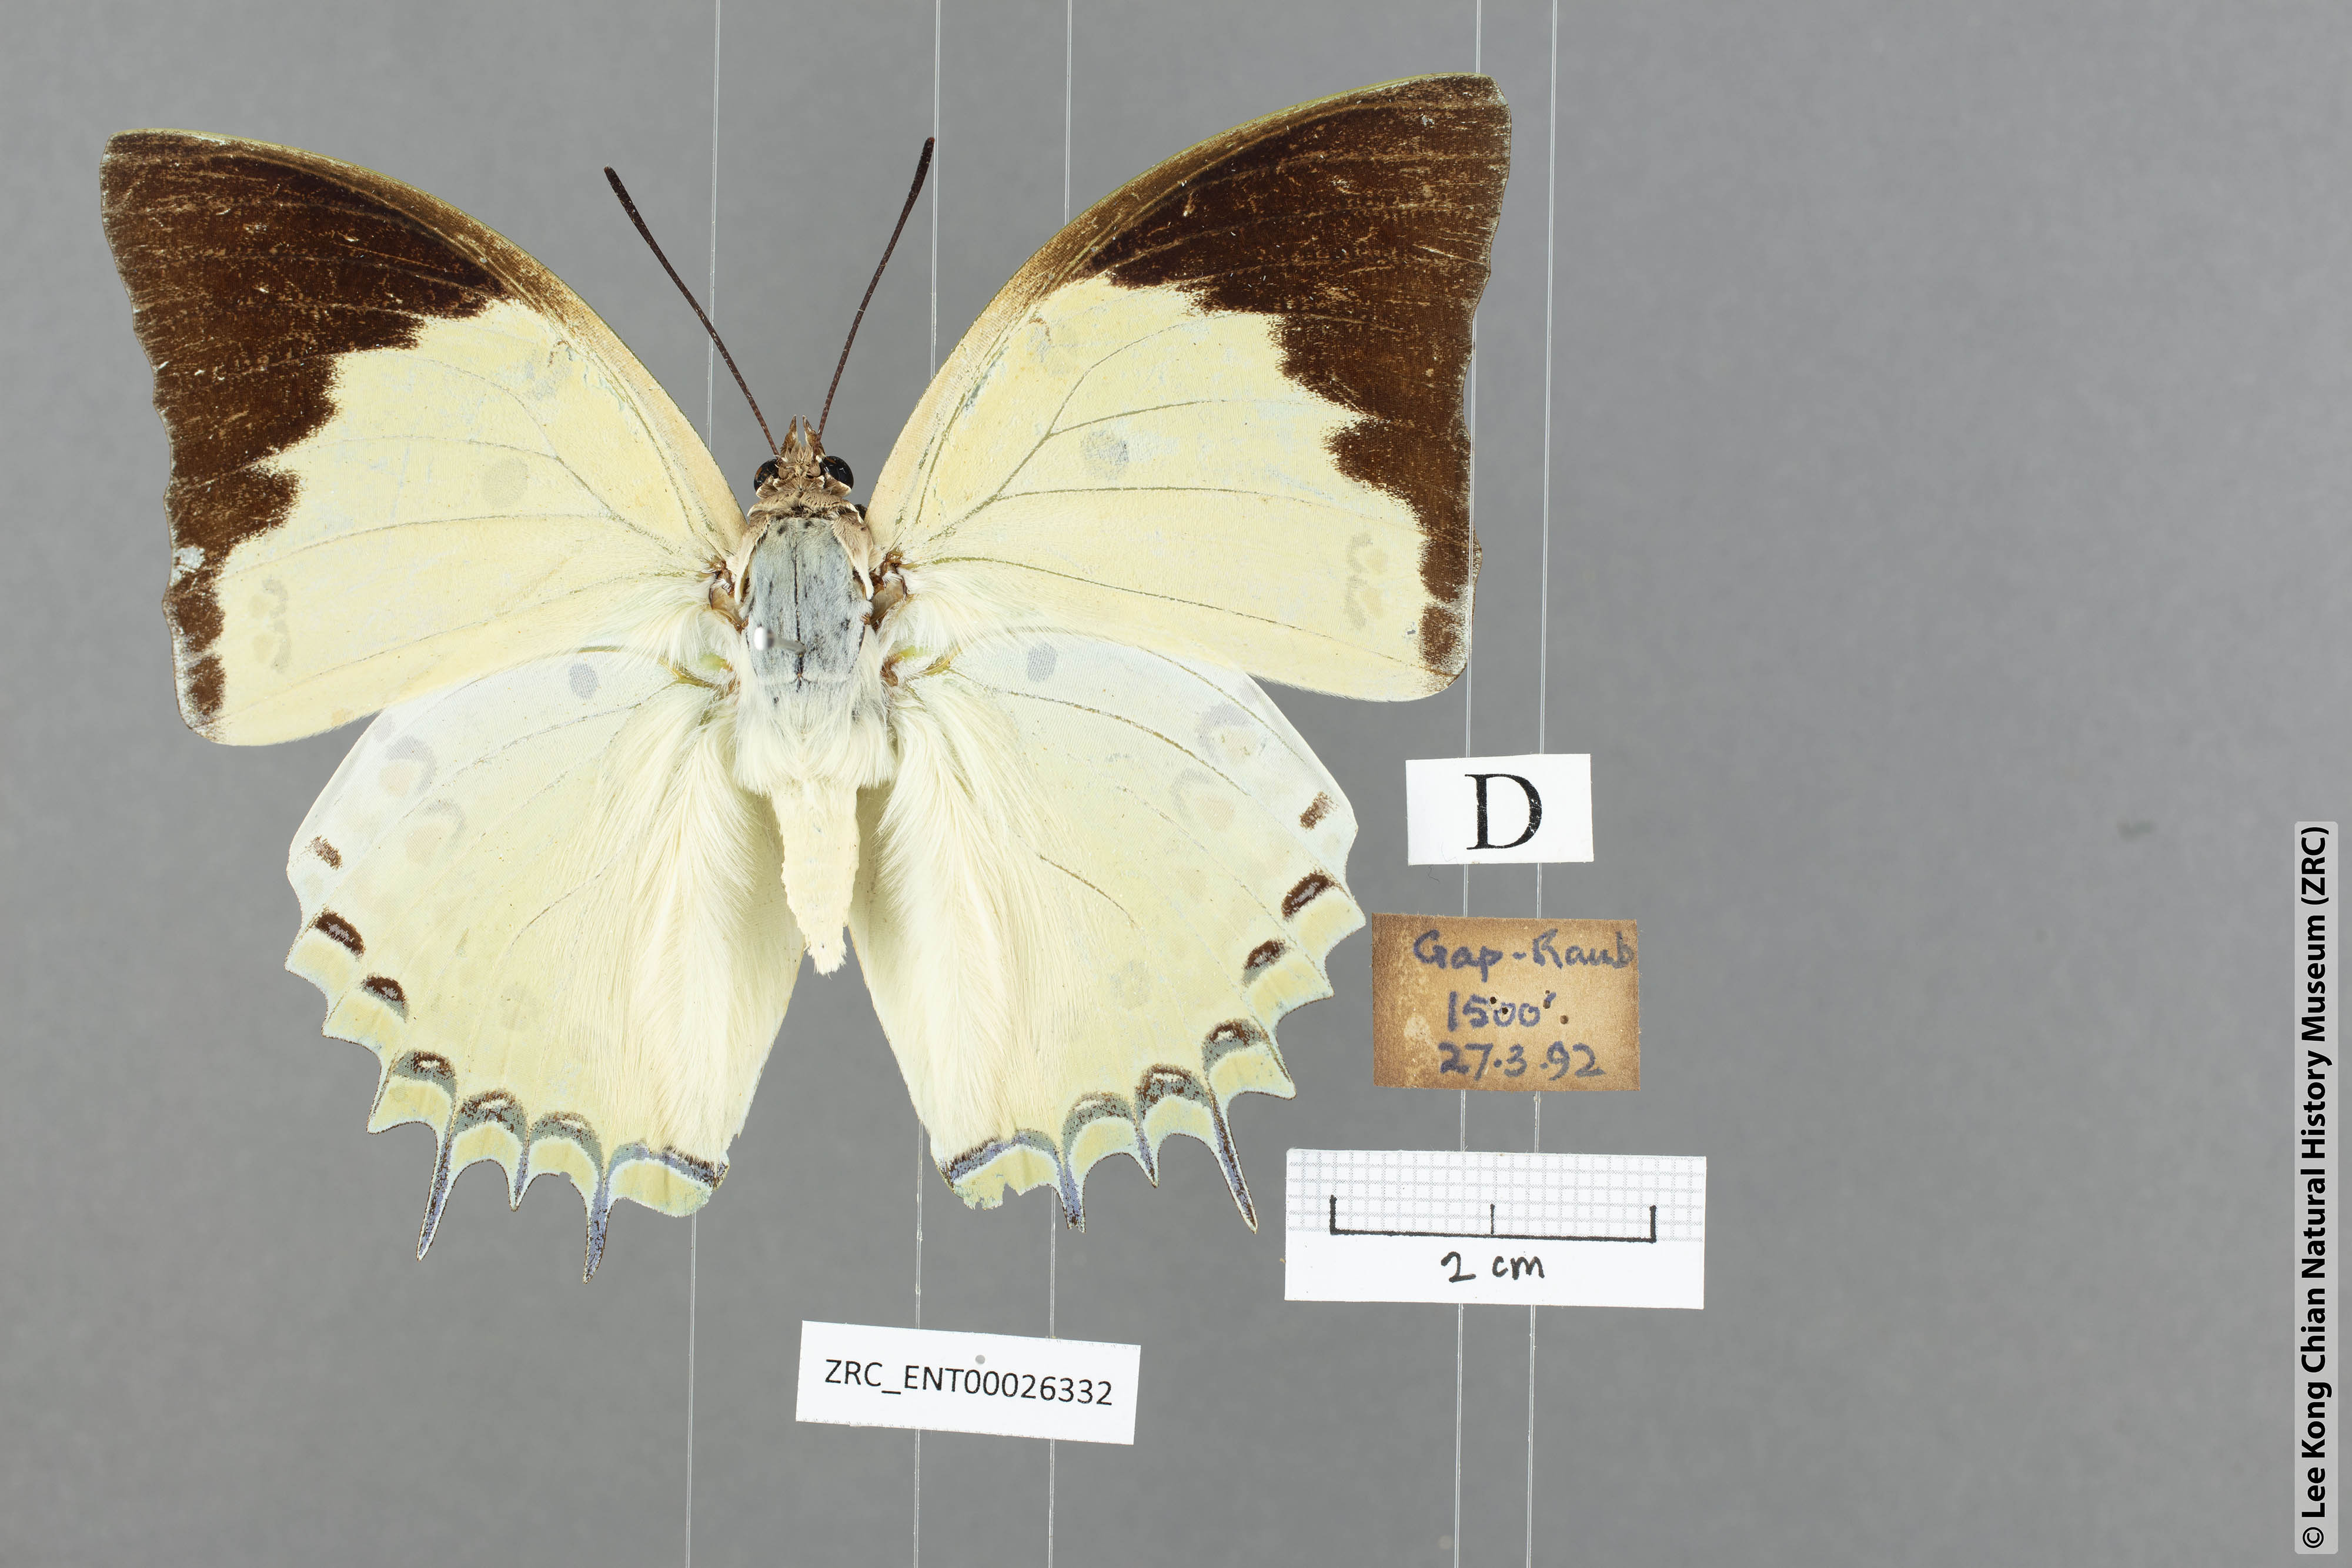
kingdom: Animalia
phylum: Arthropoda
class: Insecta
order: Lepidoptera
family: Nymphalidae
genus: Polyura
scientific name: Polyura delphis
